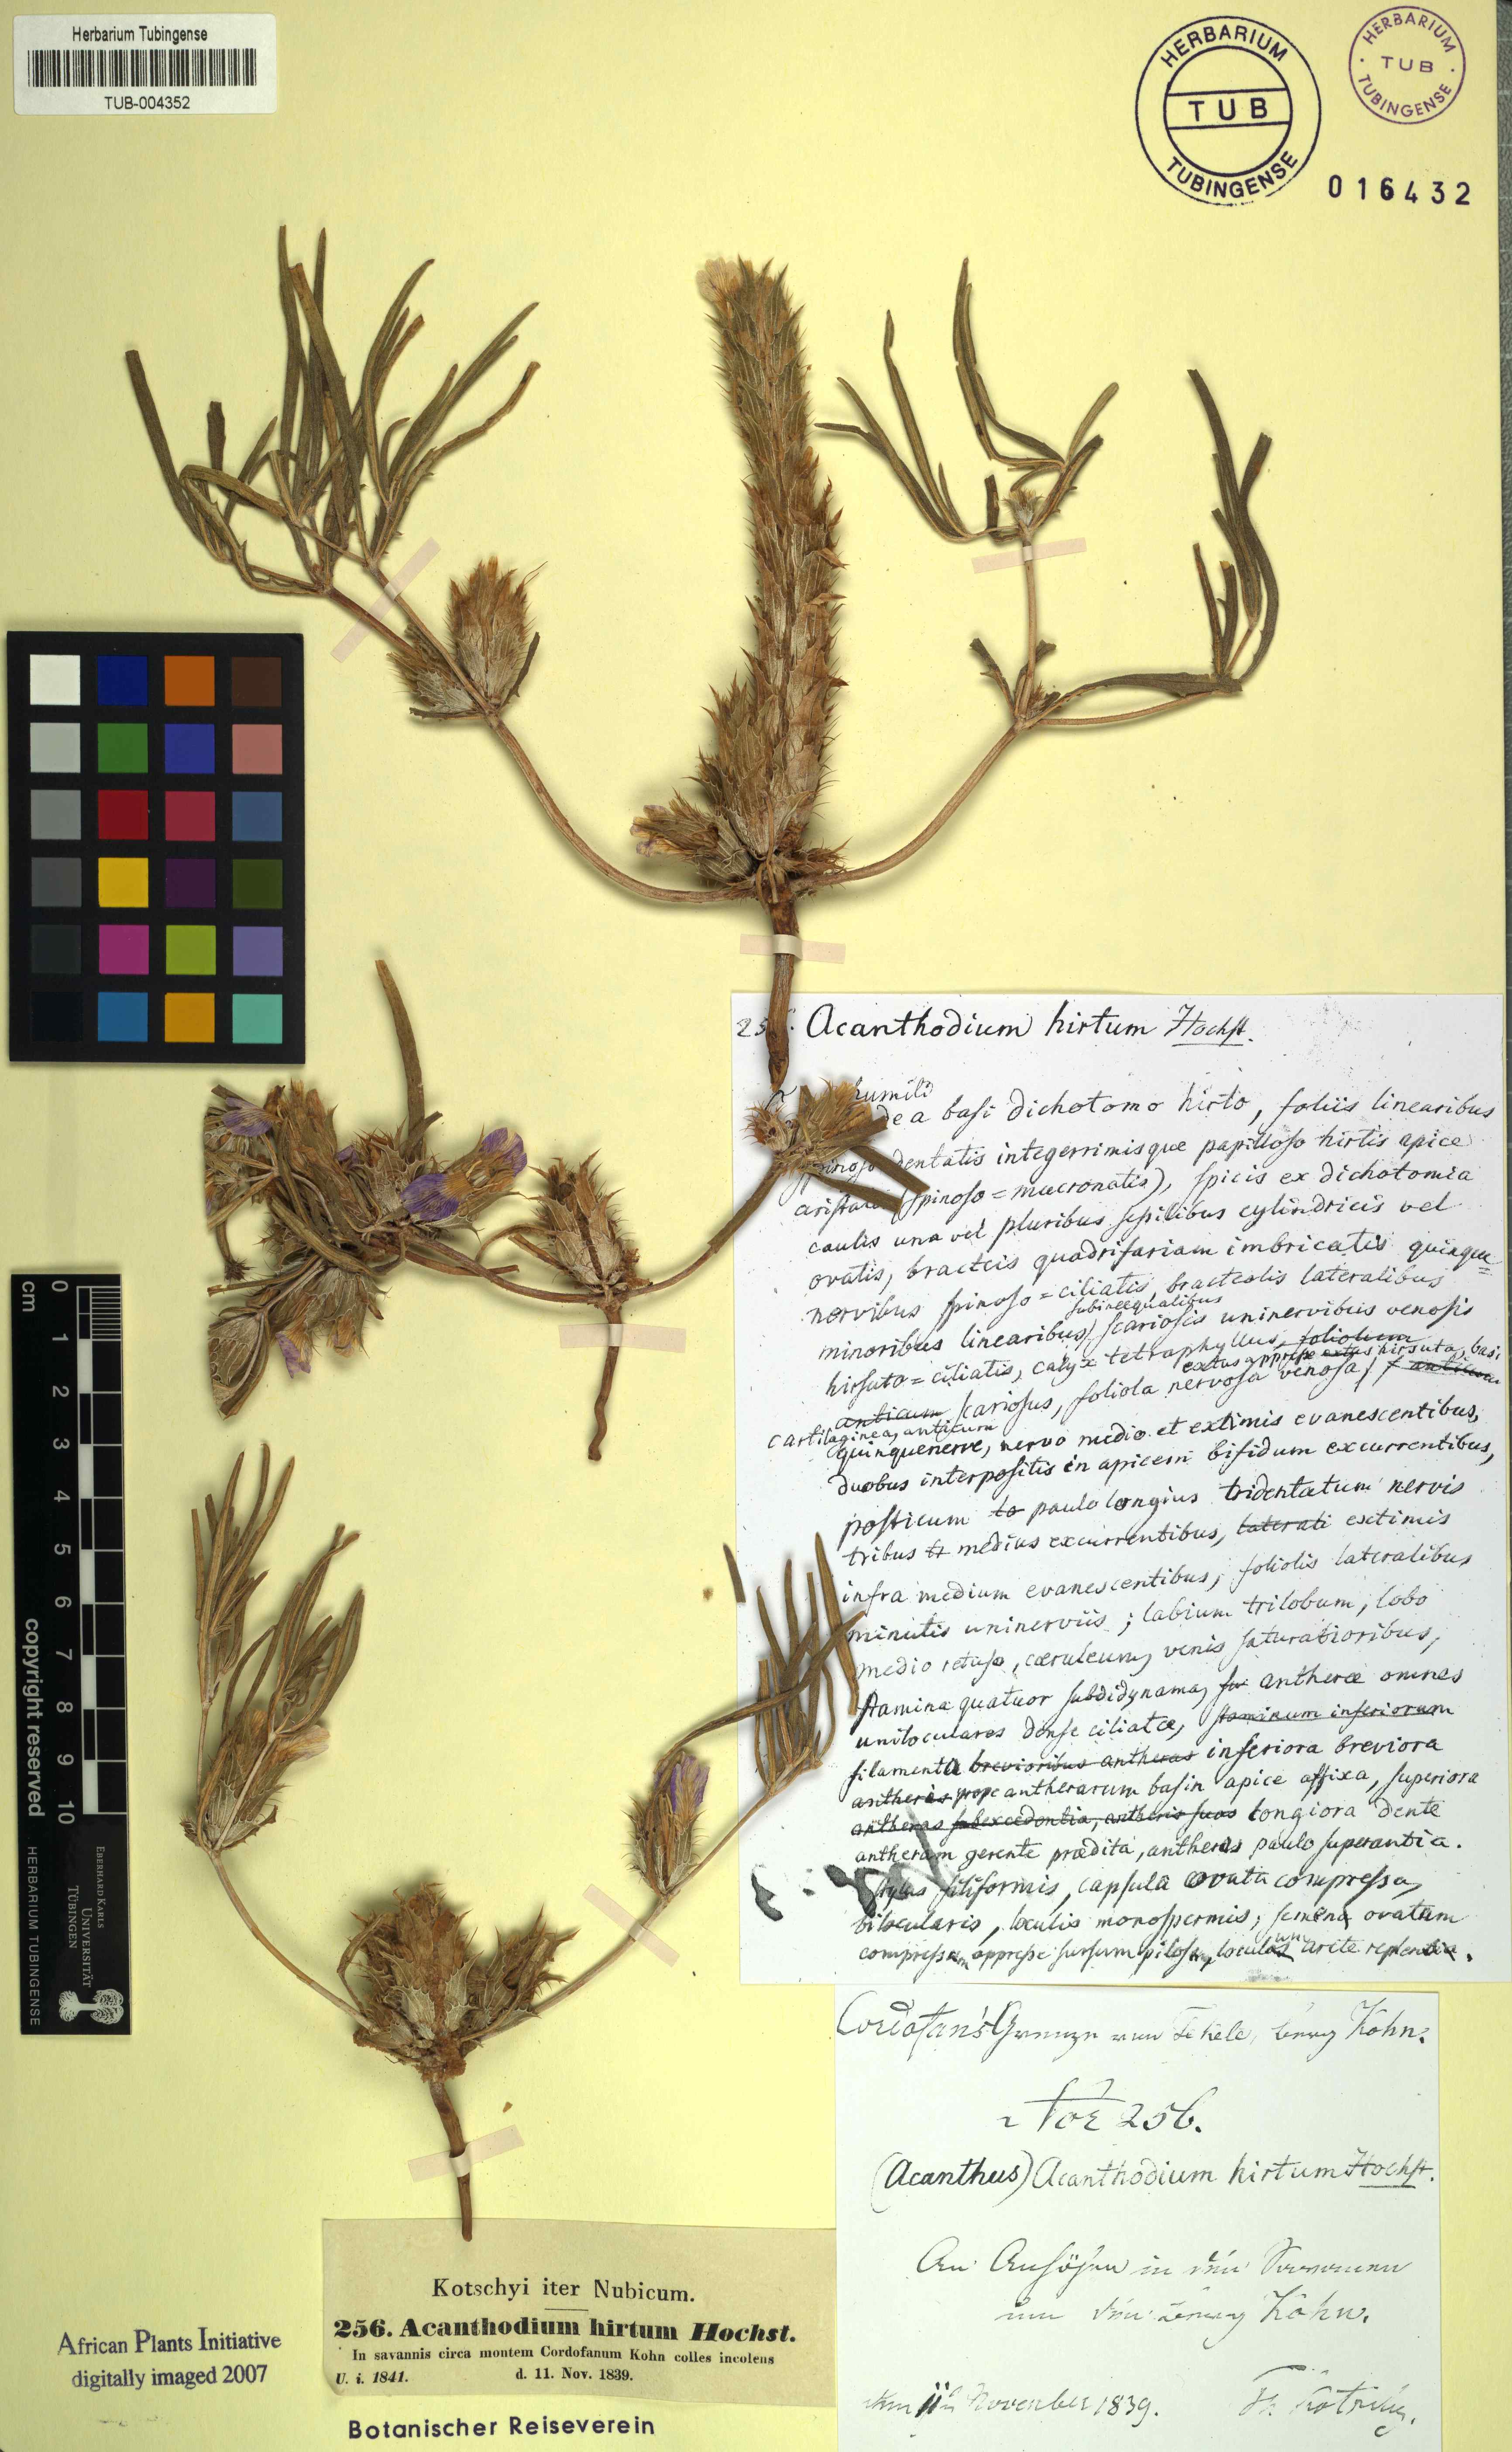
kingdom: Plantae
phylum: Tracheophyta
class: Magnoliopsida
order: Lamiales
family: Acanthaceae
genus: Blepharis
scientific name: Blepharis linearifolia
